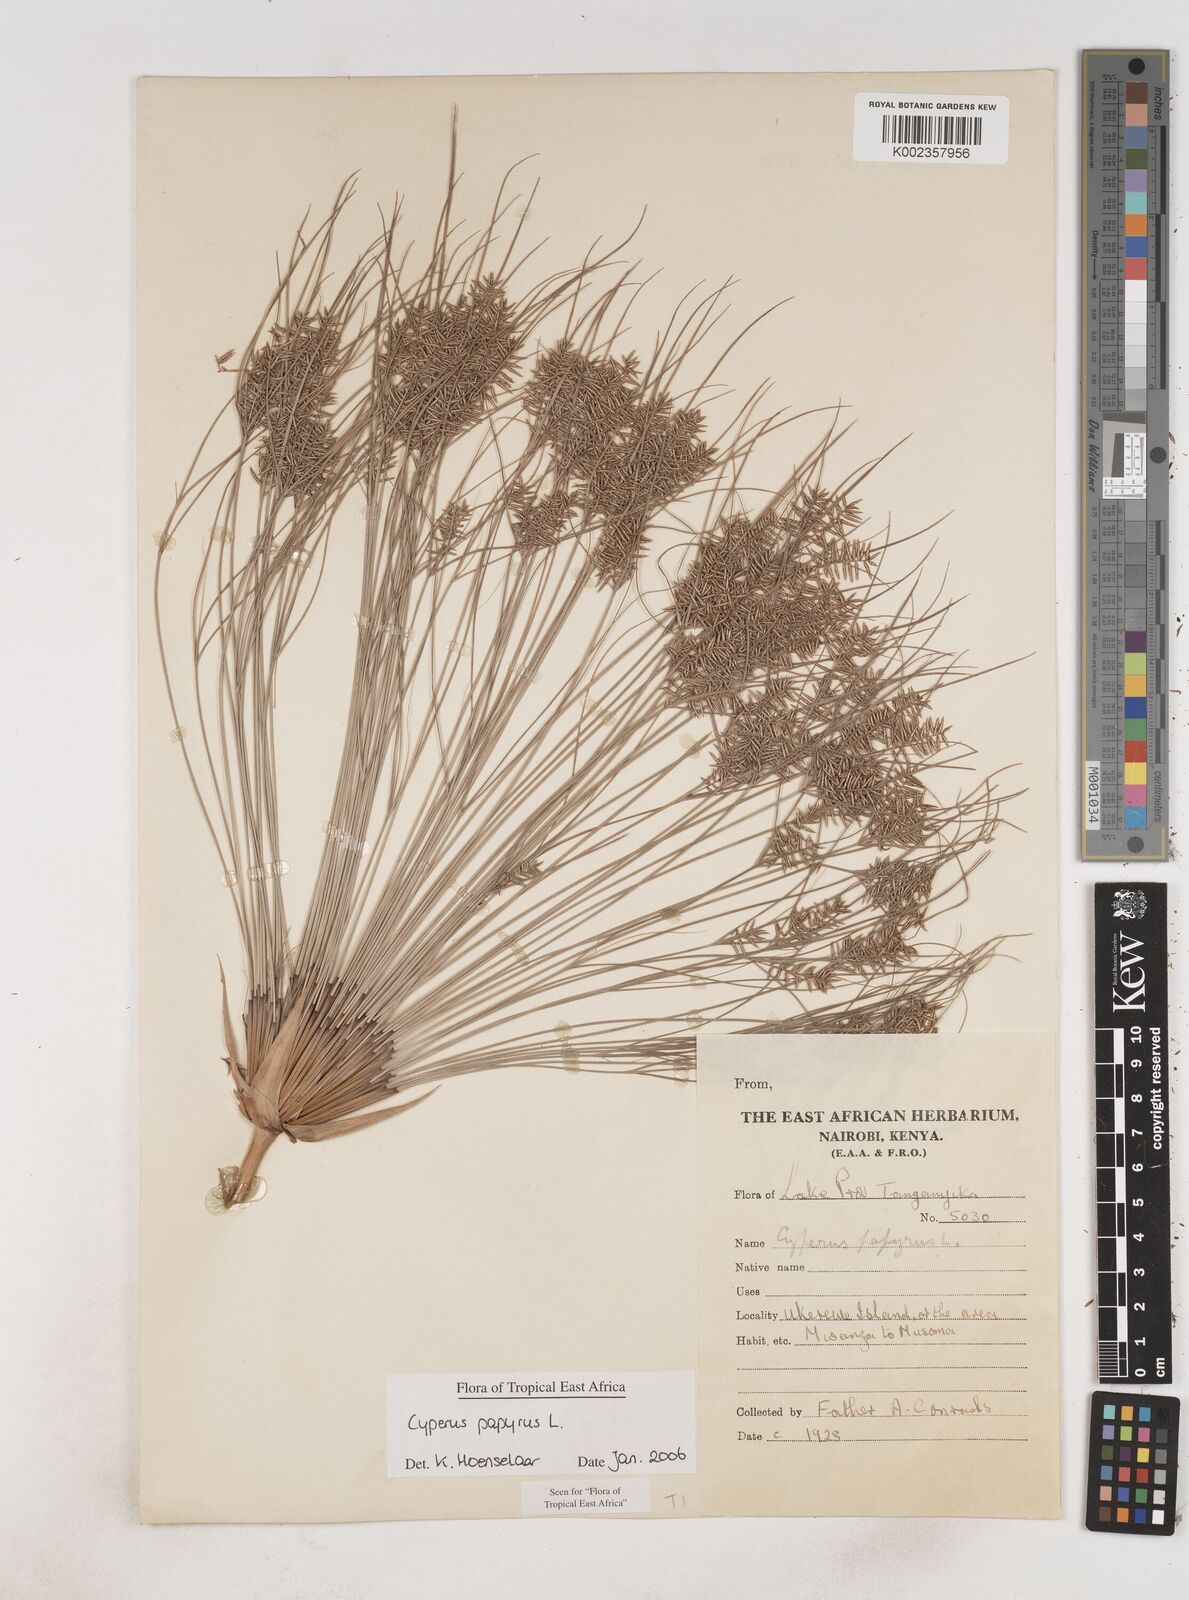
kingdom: Plantae
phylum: Tracheophyta
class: Liliopsida
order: Poales
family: Cyperaceae
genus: Cyperus
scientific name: Cyperus papyrus
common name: Papyrus
